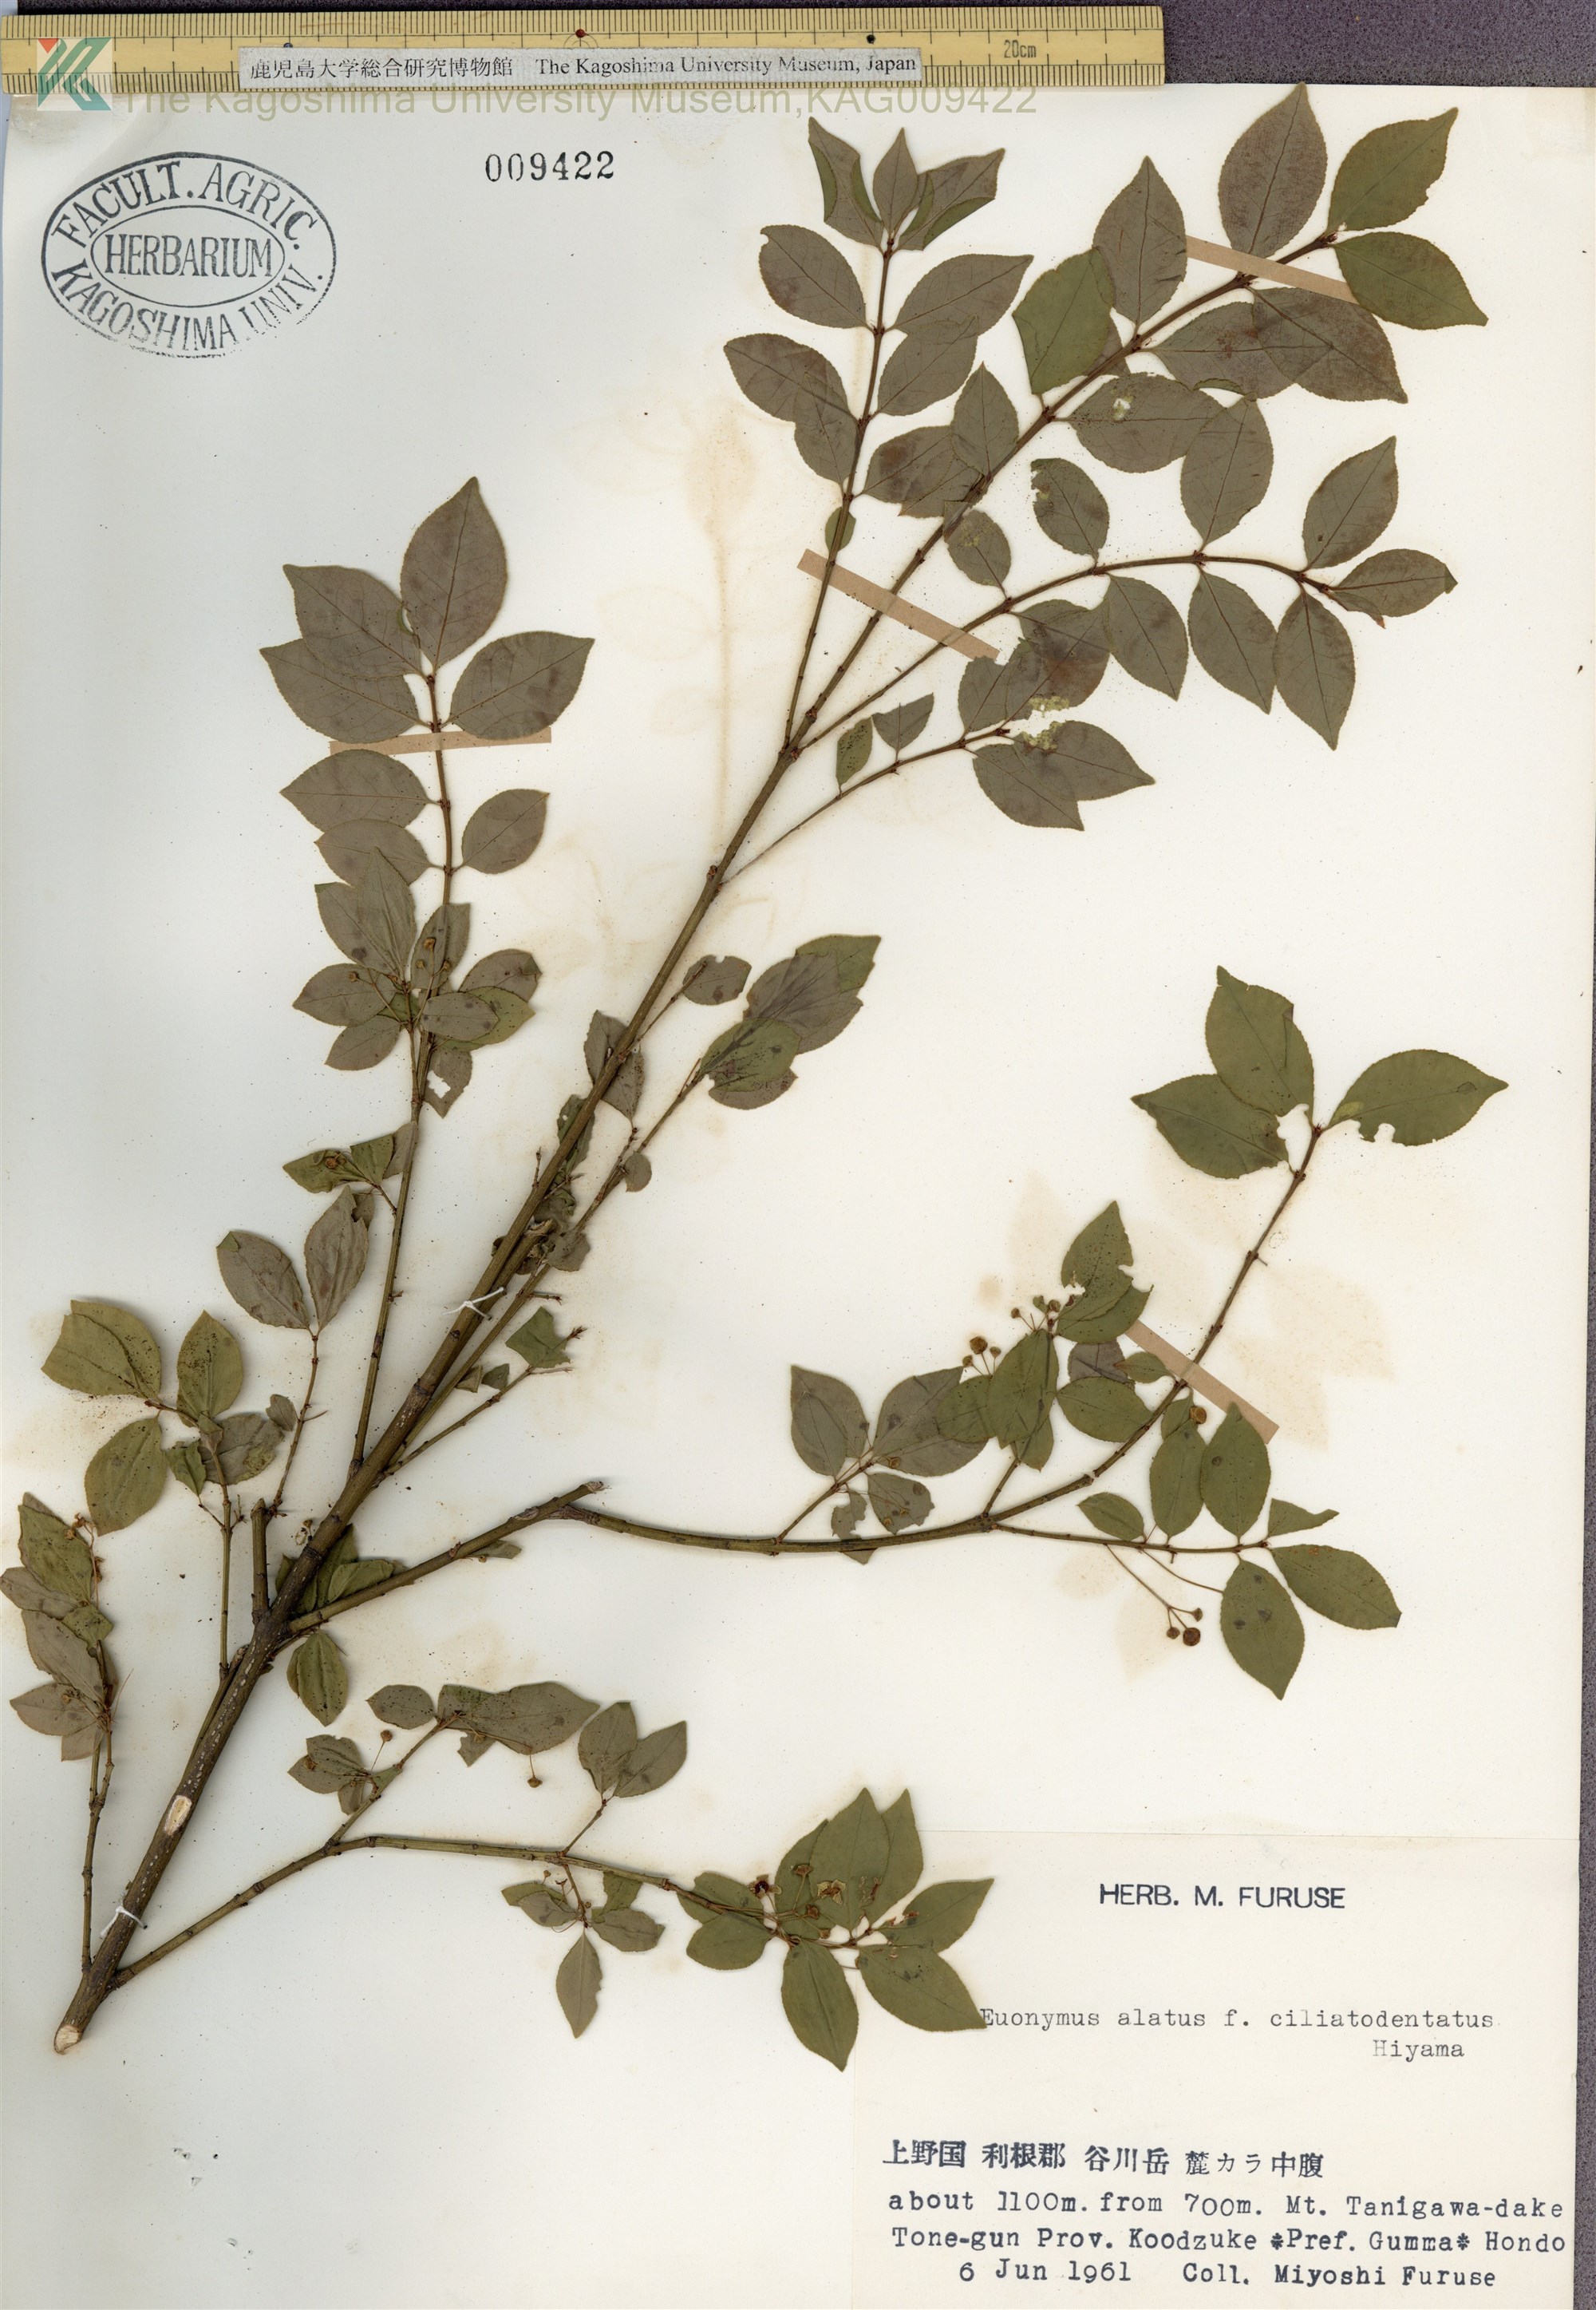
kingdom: Plantae
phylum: Tracheophyta
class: Magnoliopsida
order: Celastrales
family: Celastraceae
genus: Euonymus
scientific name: Euonymus alatus
